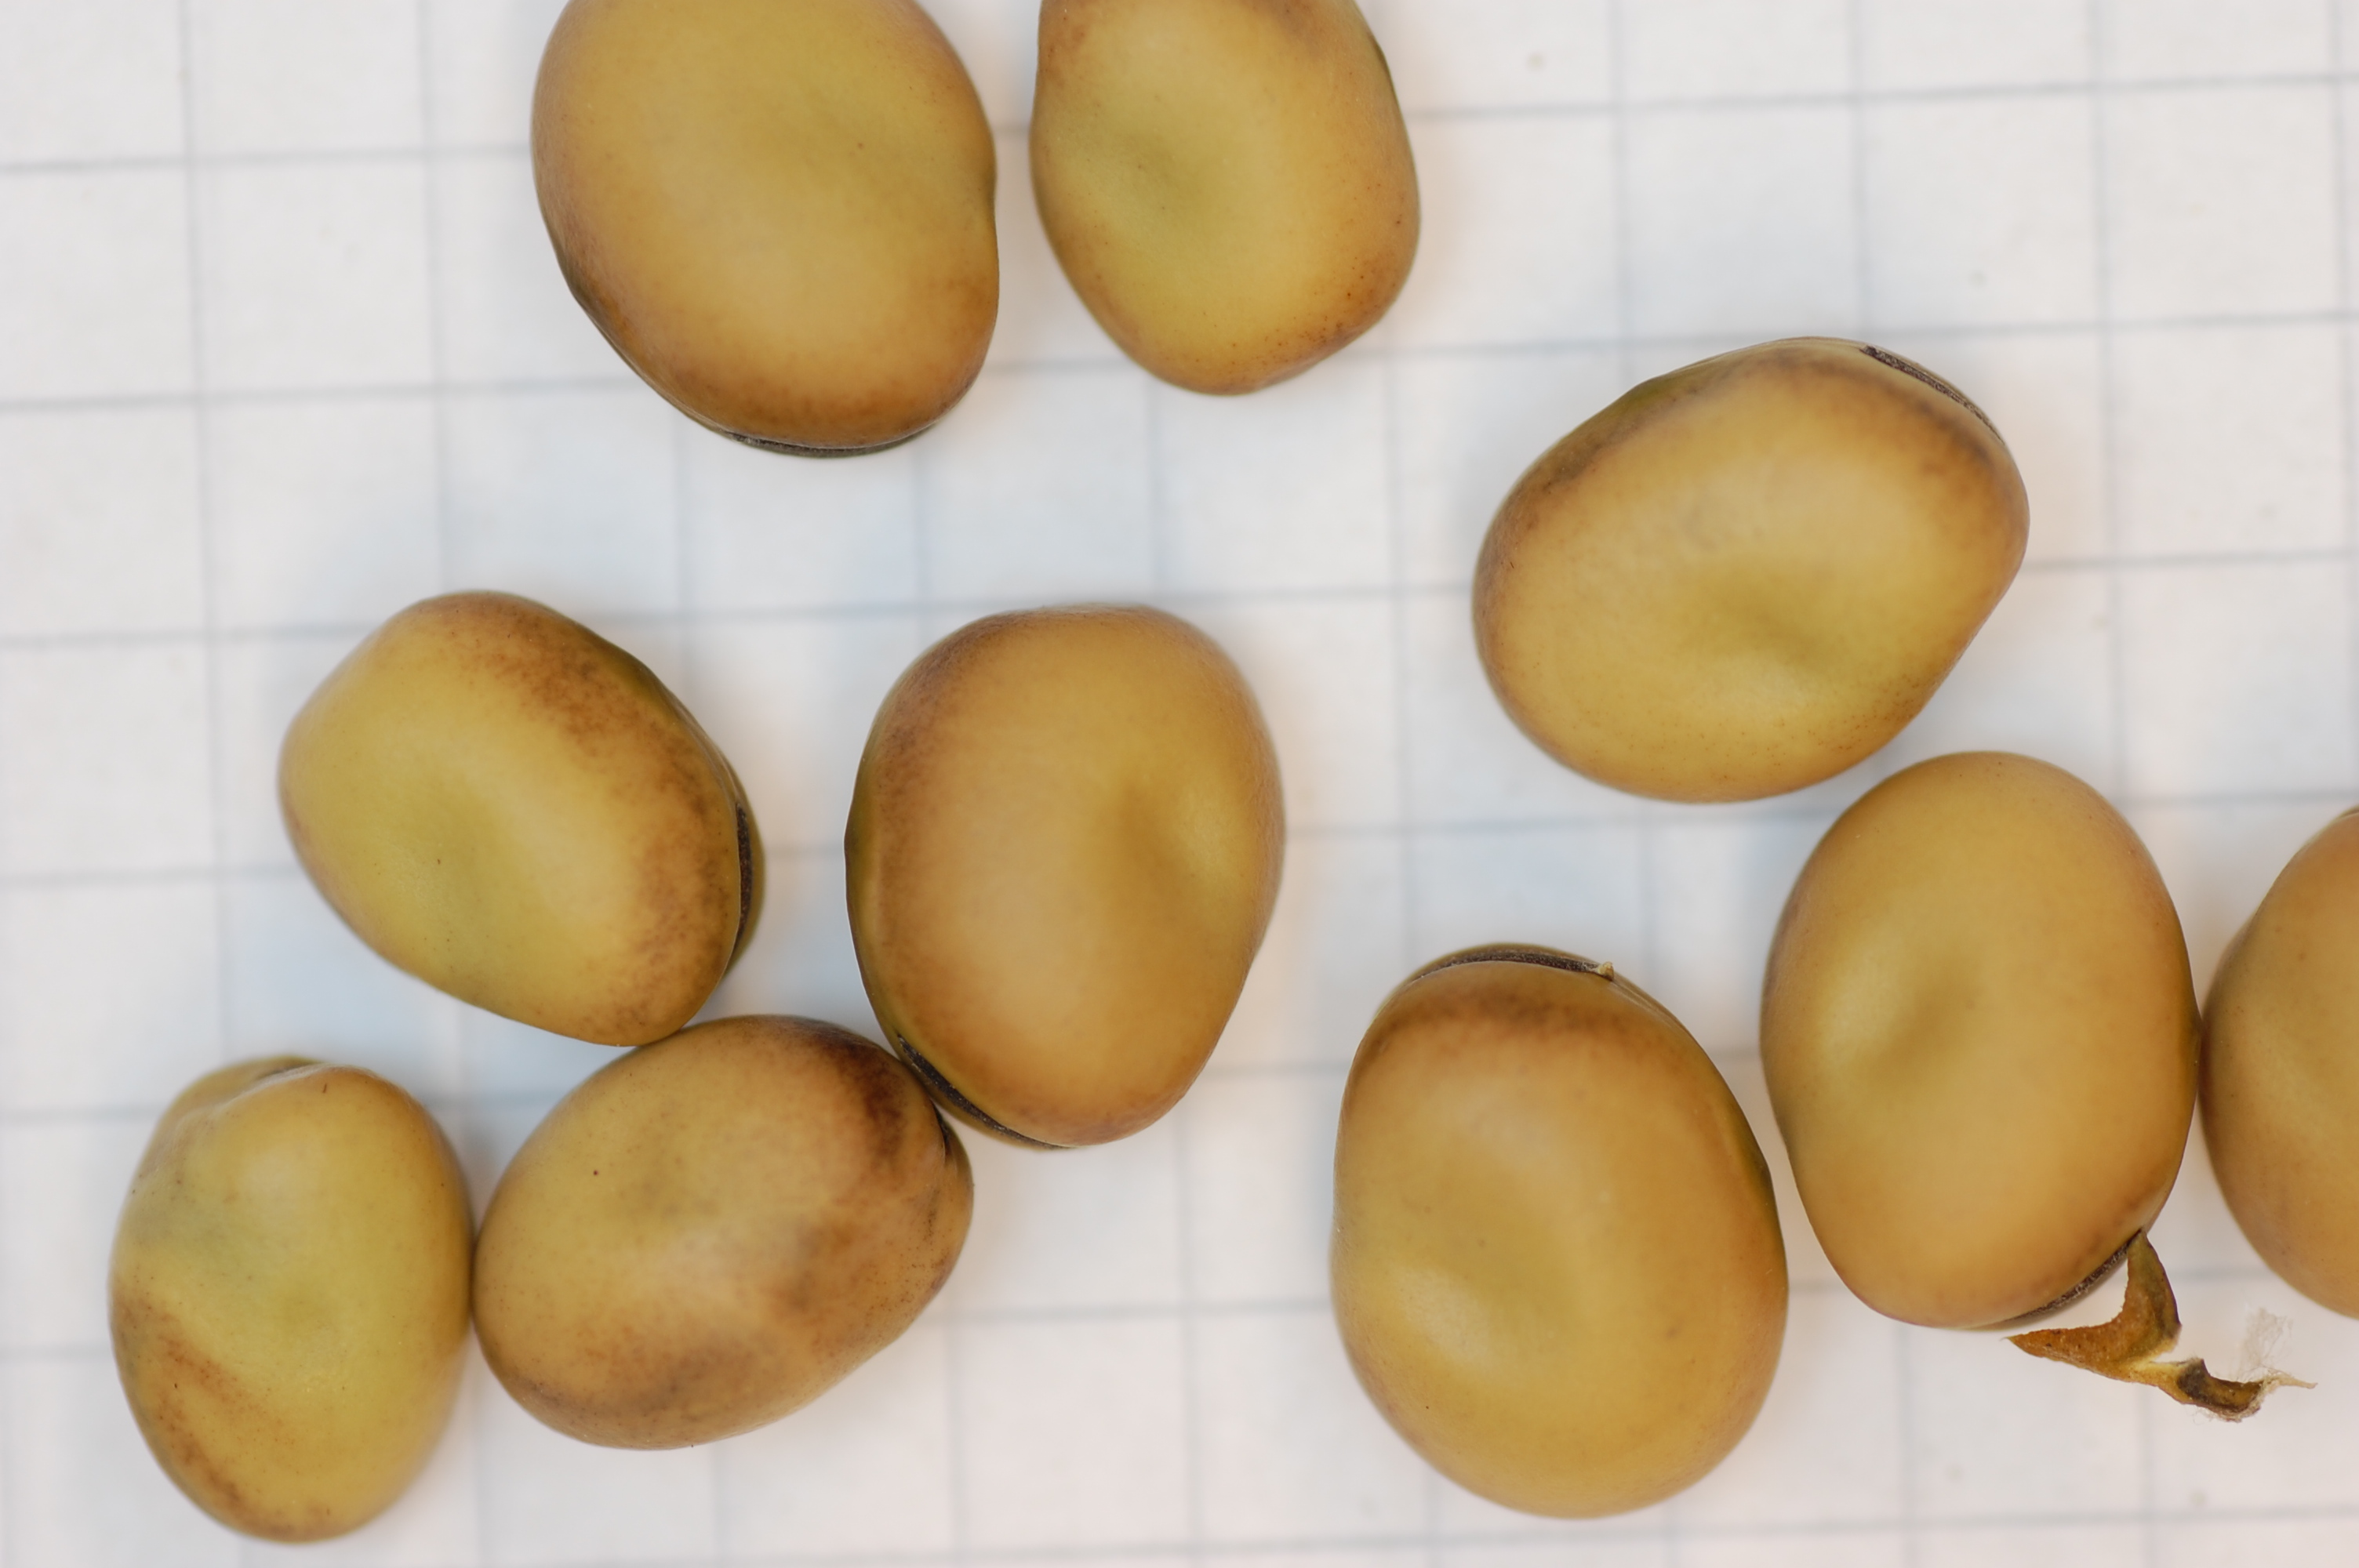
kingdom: Plantae
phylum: Tracheophyta
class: Magnoliopsida
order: Fabales
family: Fabaceae
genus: Vicia
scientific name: Vicia faba
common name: Broad bean
